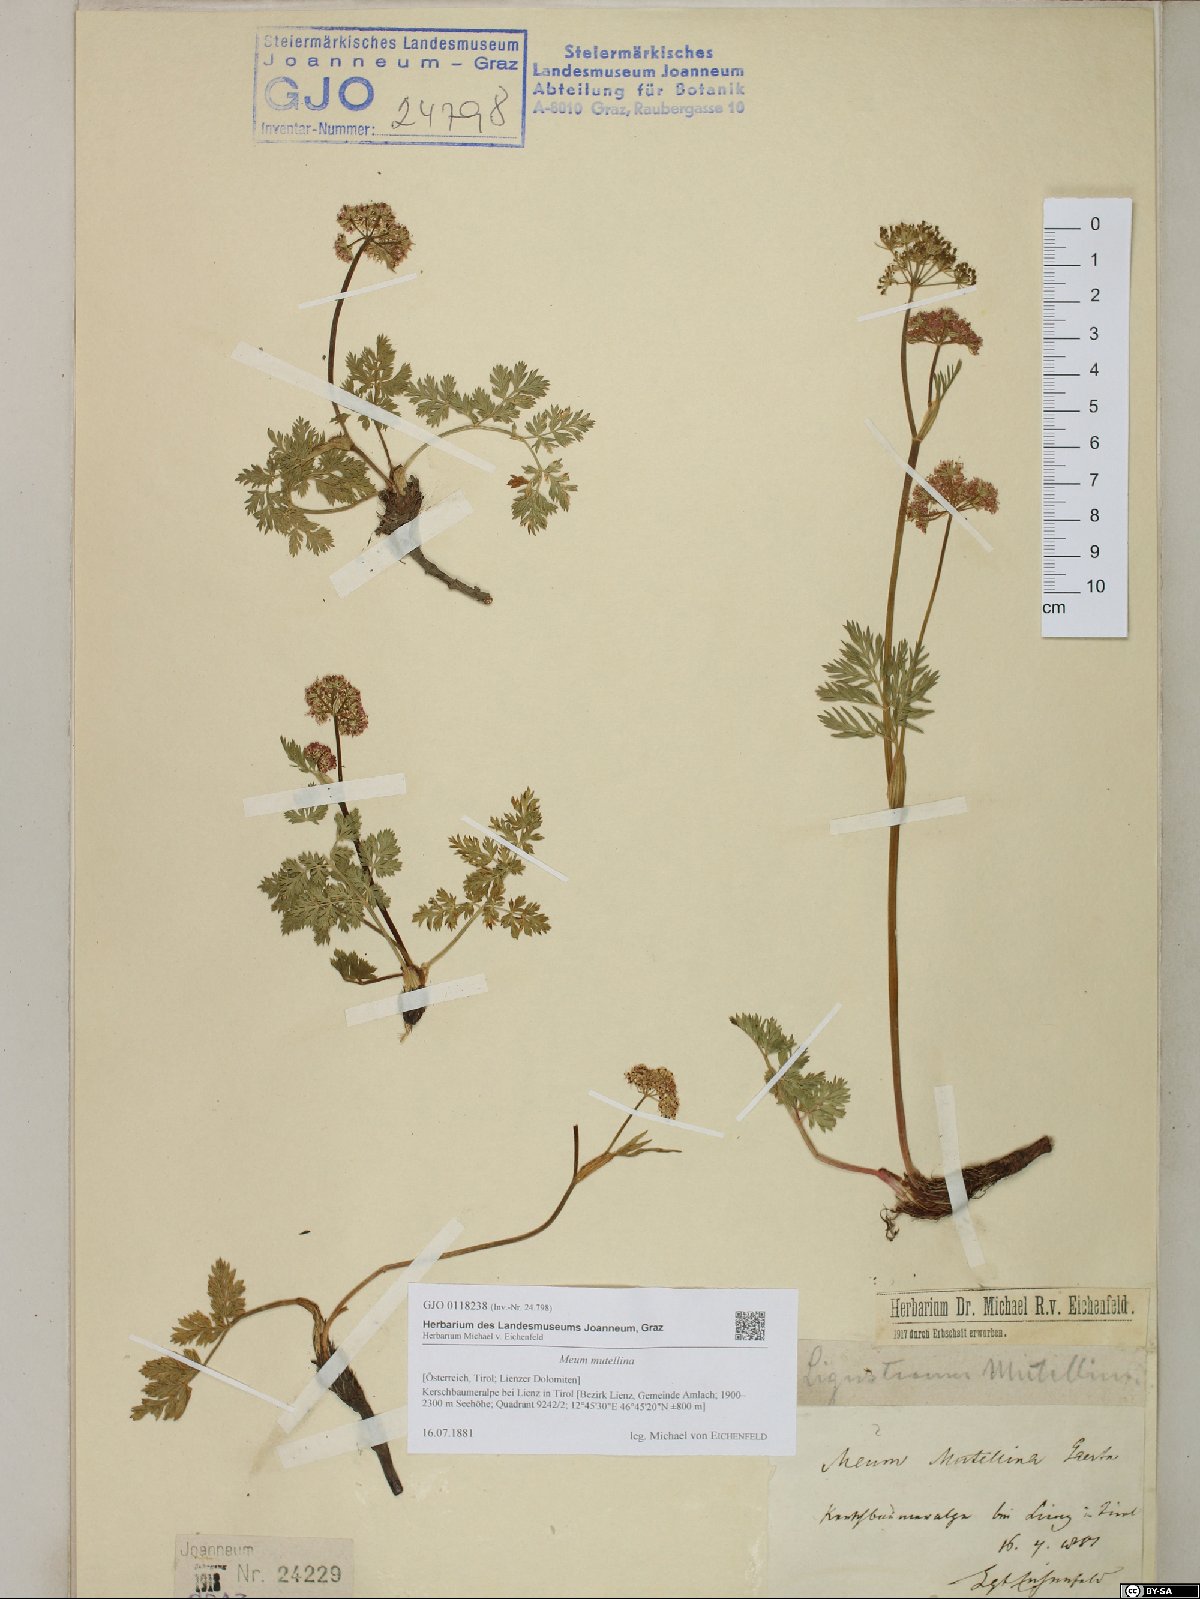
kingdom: Plantae
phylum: Tracheophyta
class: Magnoliopsida
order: Apiales
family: Apiaceae
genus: Mutellina
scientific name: Mutellina adonidifolia
